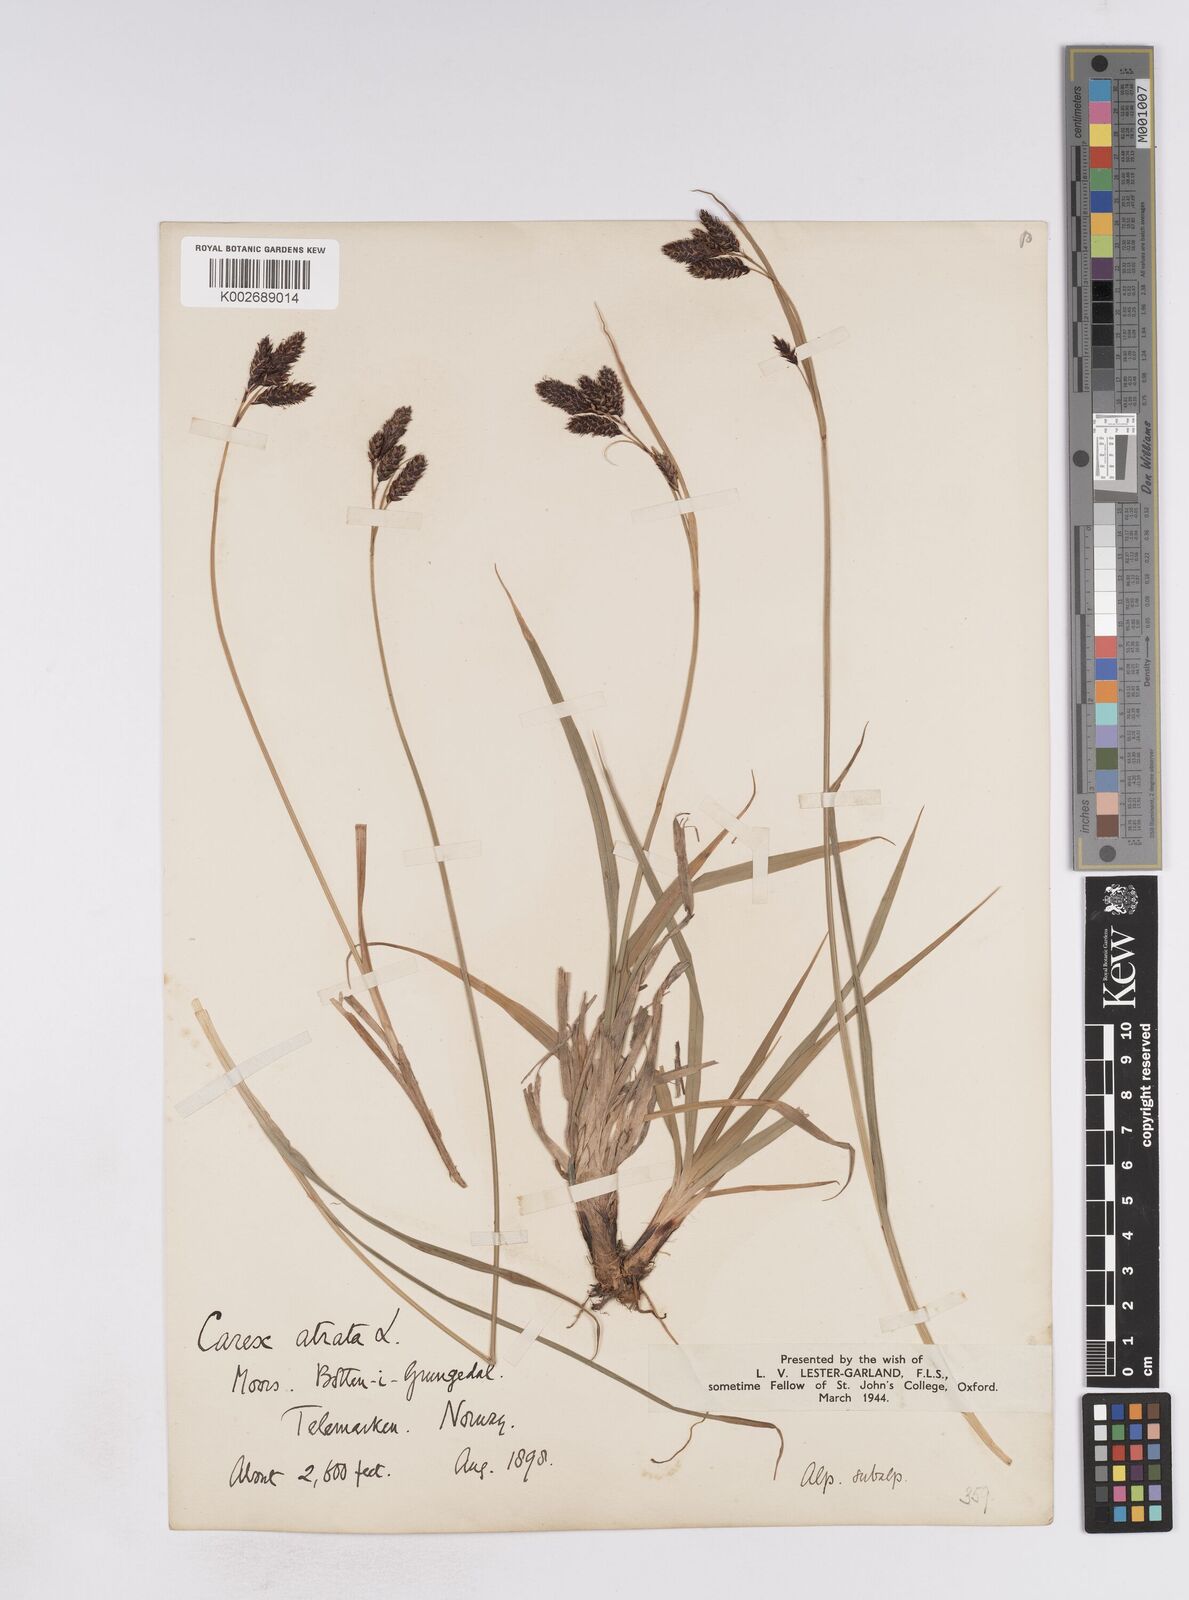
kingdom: Plantae
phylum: Tracheophyta
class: Liliopsida
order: Poales
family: Cyperaceae
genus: Carex
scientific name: Carex atrata
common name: Black alpine sedge
